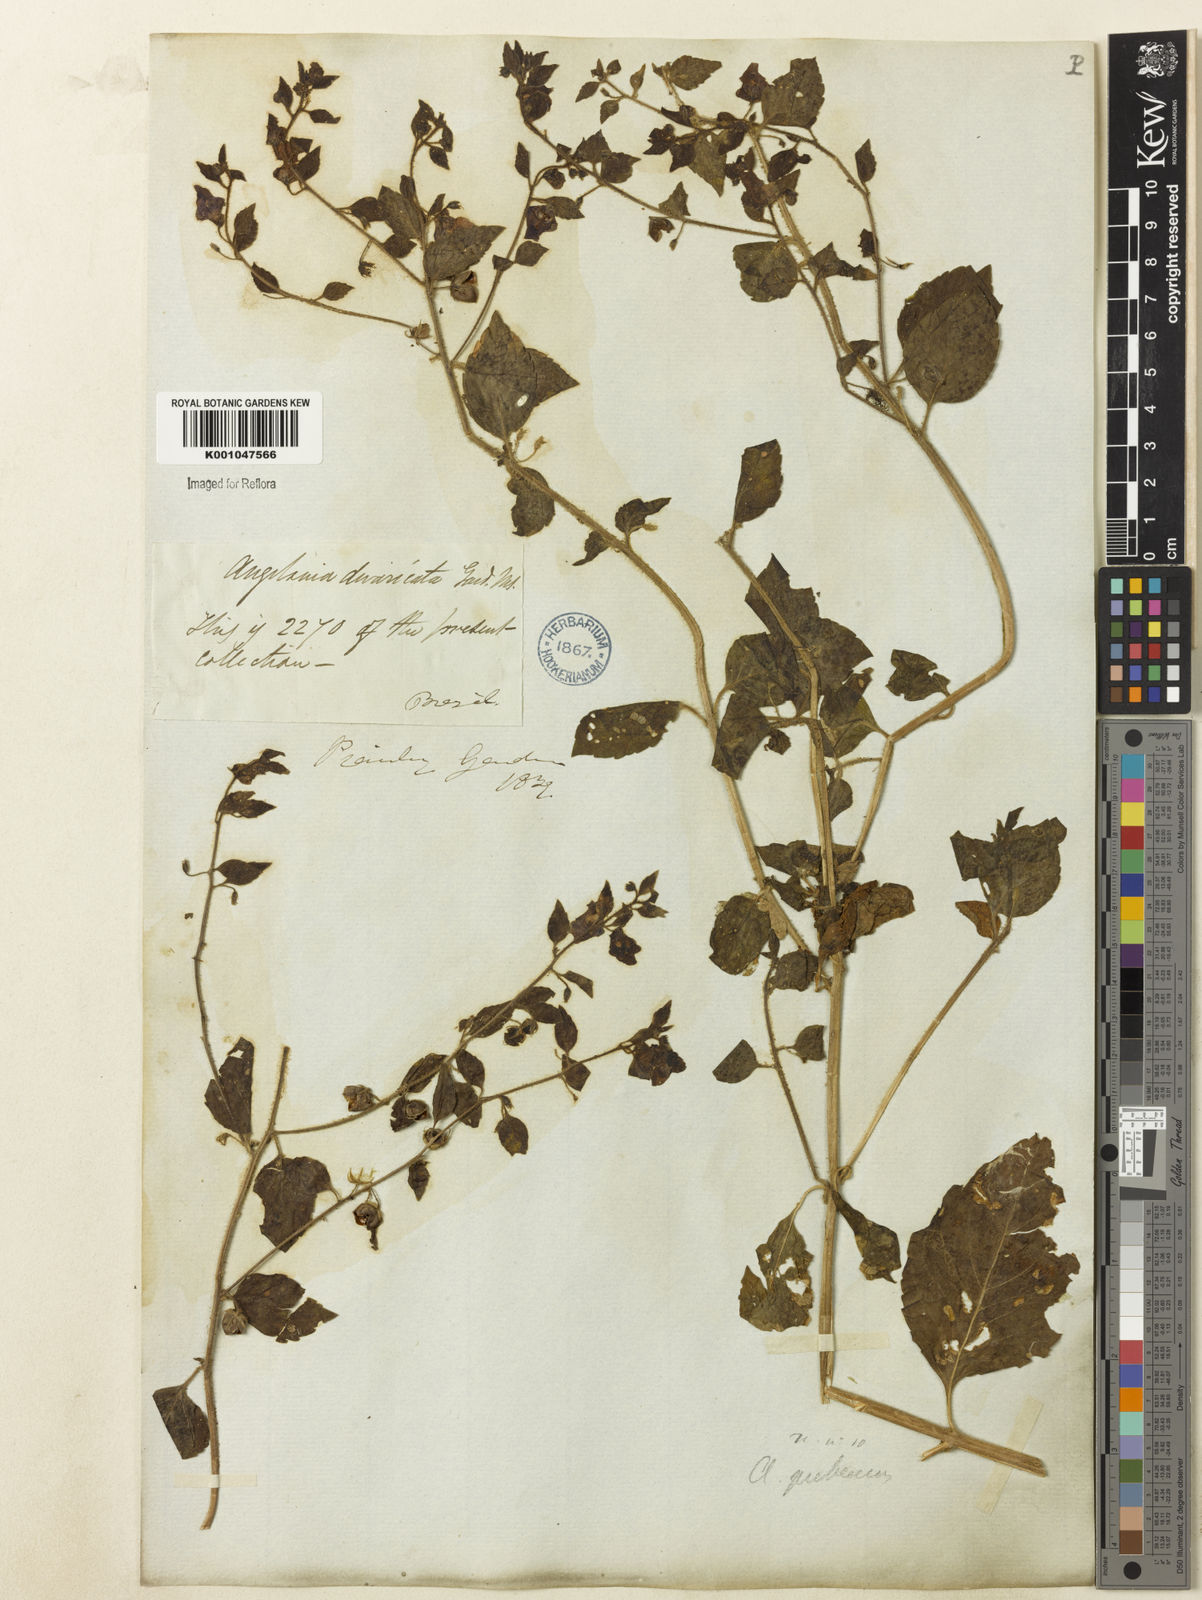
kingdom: Plantae
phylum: Tracheophyta
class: Magnoliopsida
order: Lamiales
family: Plantaginaceae
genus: Angelonia
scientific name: Angelonia pubescens
